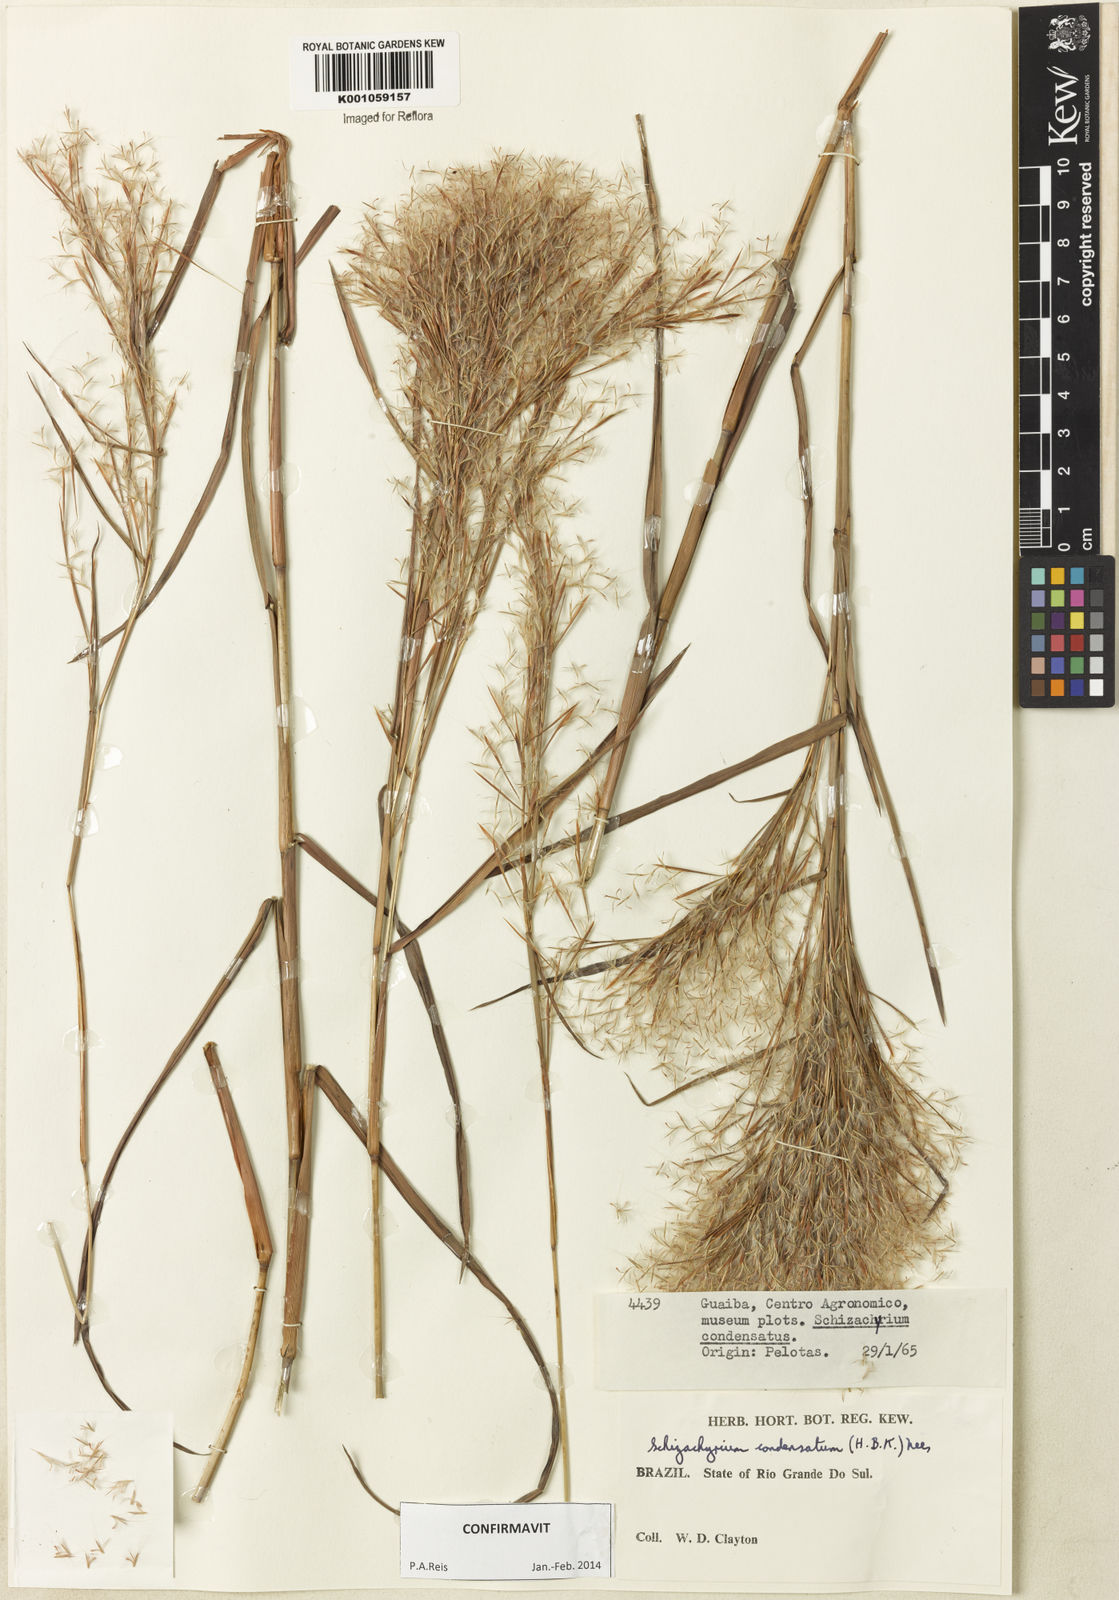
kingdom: Plantae
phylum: Tracheophyta
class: Liliopsida
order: Poales
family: Poaceae
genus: Schizachyrium
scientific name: Schizachyrium condensatum
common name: Bush beardgrass
